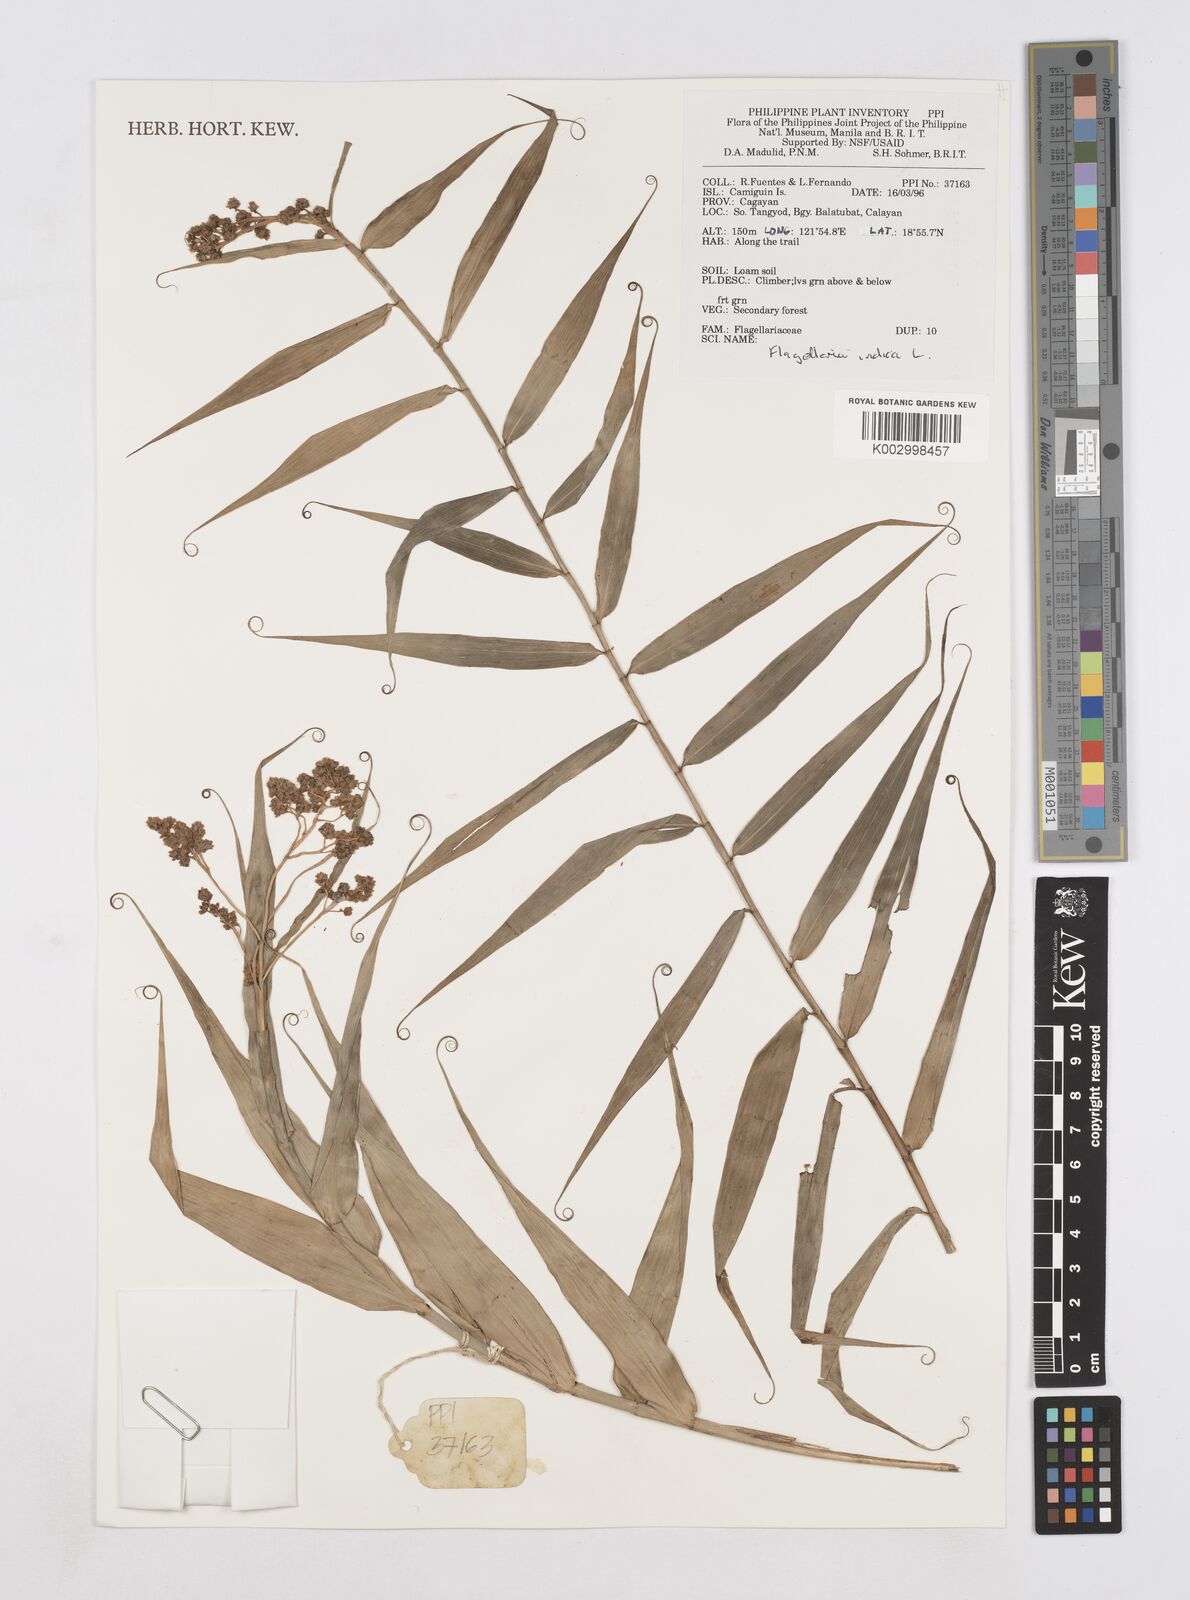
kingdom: Plantae
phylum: Tracheophyta
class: Liliopsida
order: Poales
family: Flagellariaceae
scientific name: Flagellariaceae
